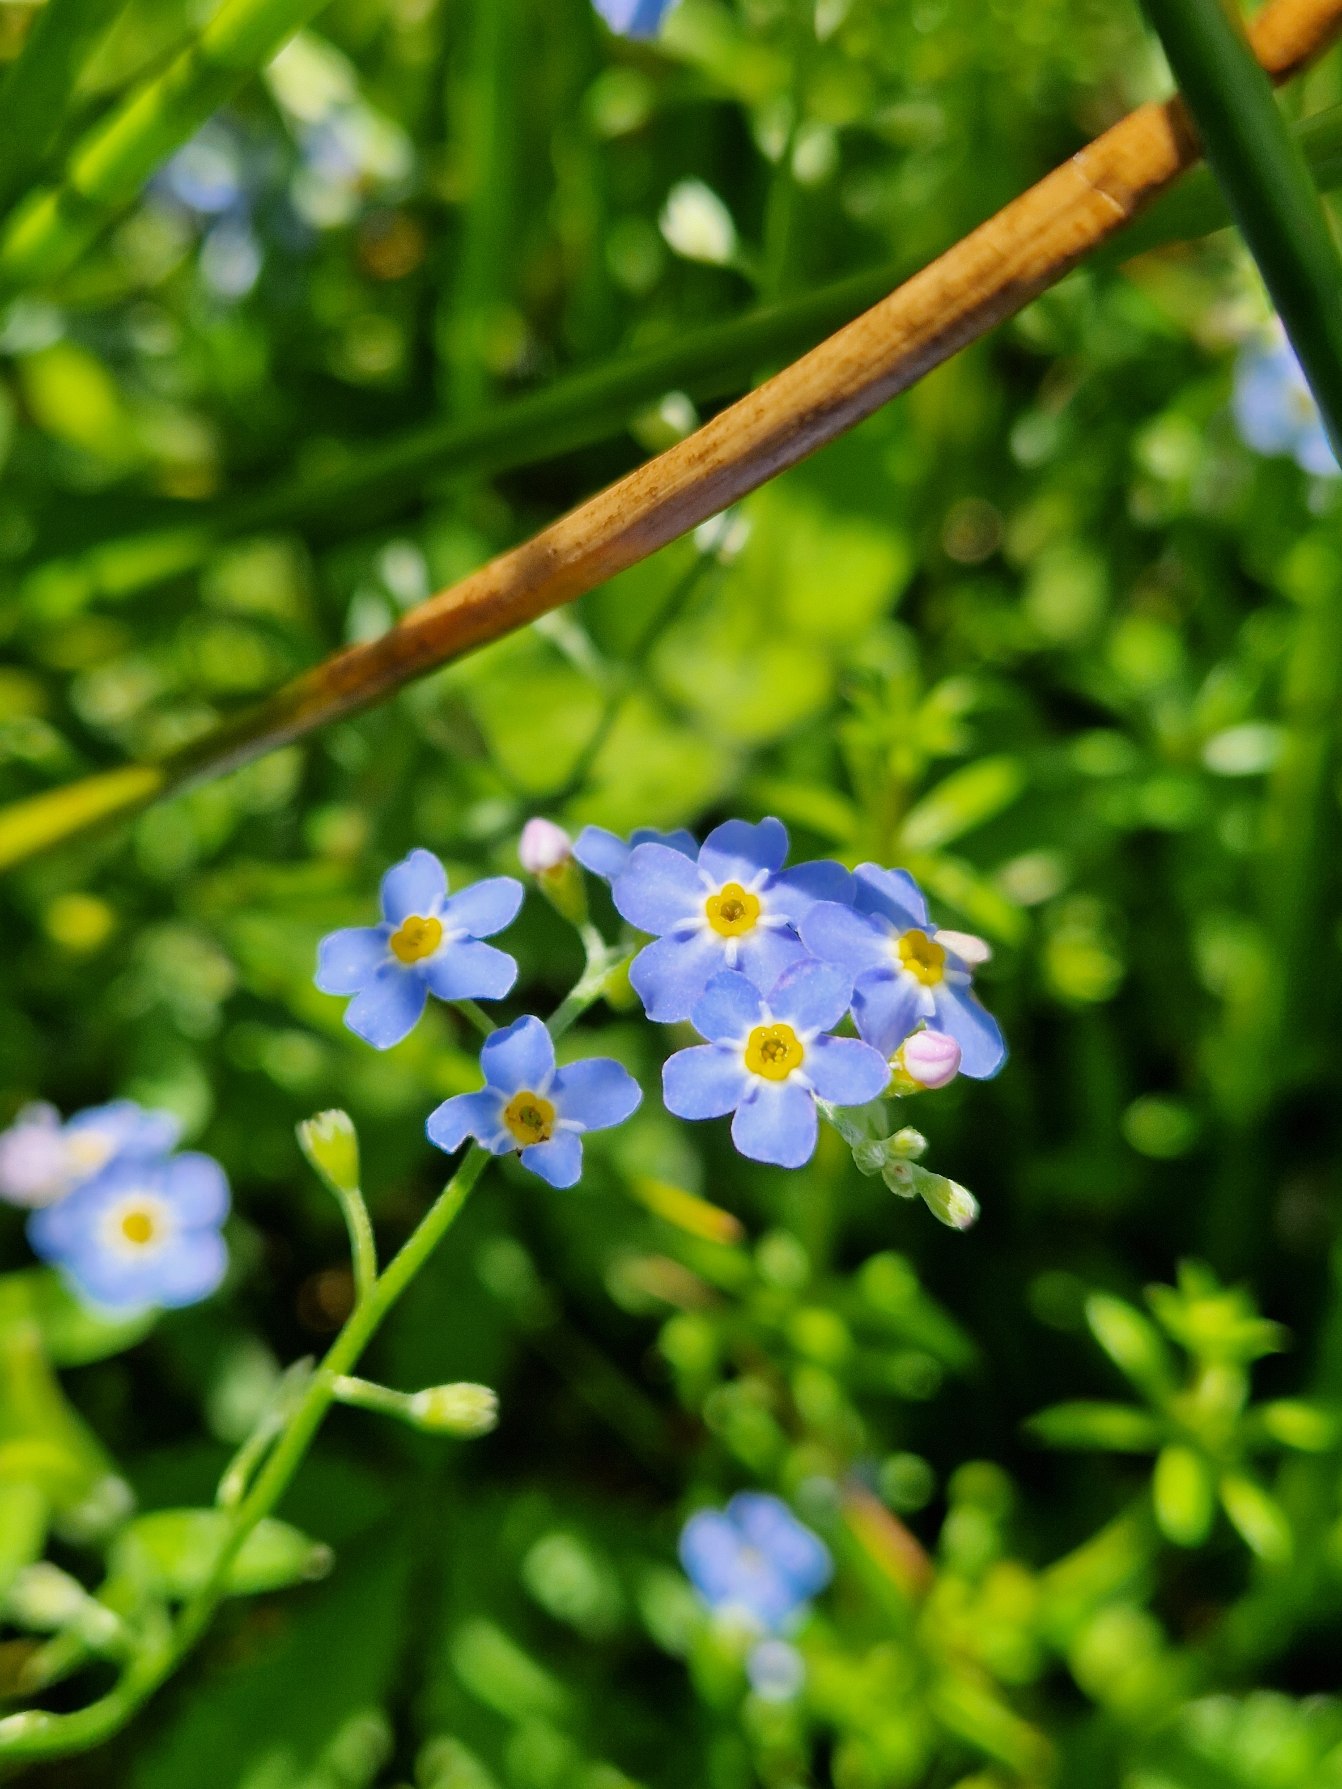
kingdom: Plantae
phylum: Tracheophyta
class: Magnoliopsida
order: Boraginales
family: Boraginaceae
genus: Myosotis
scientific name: Myosotis scorpioides
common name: Eng-forglemmigej
